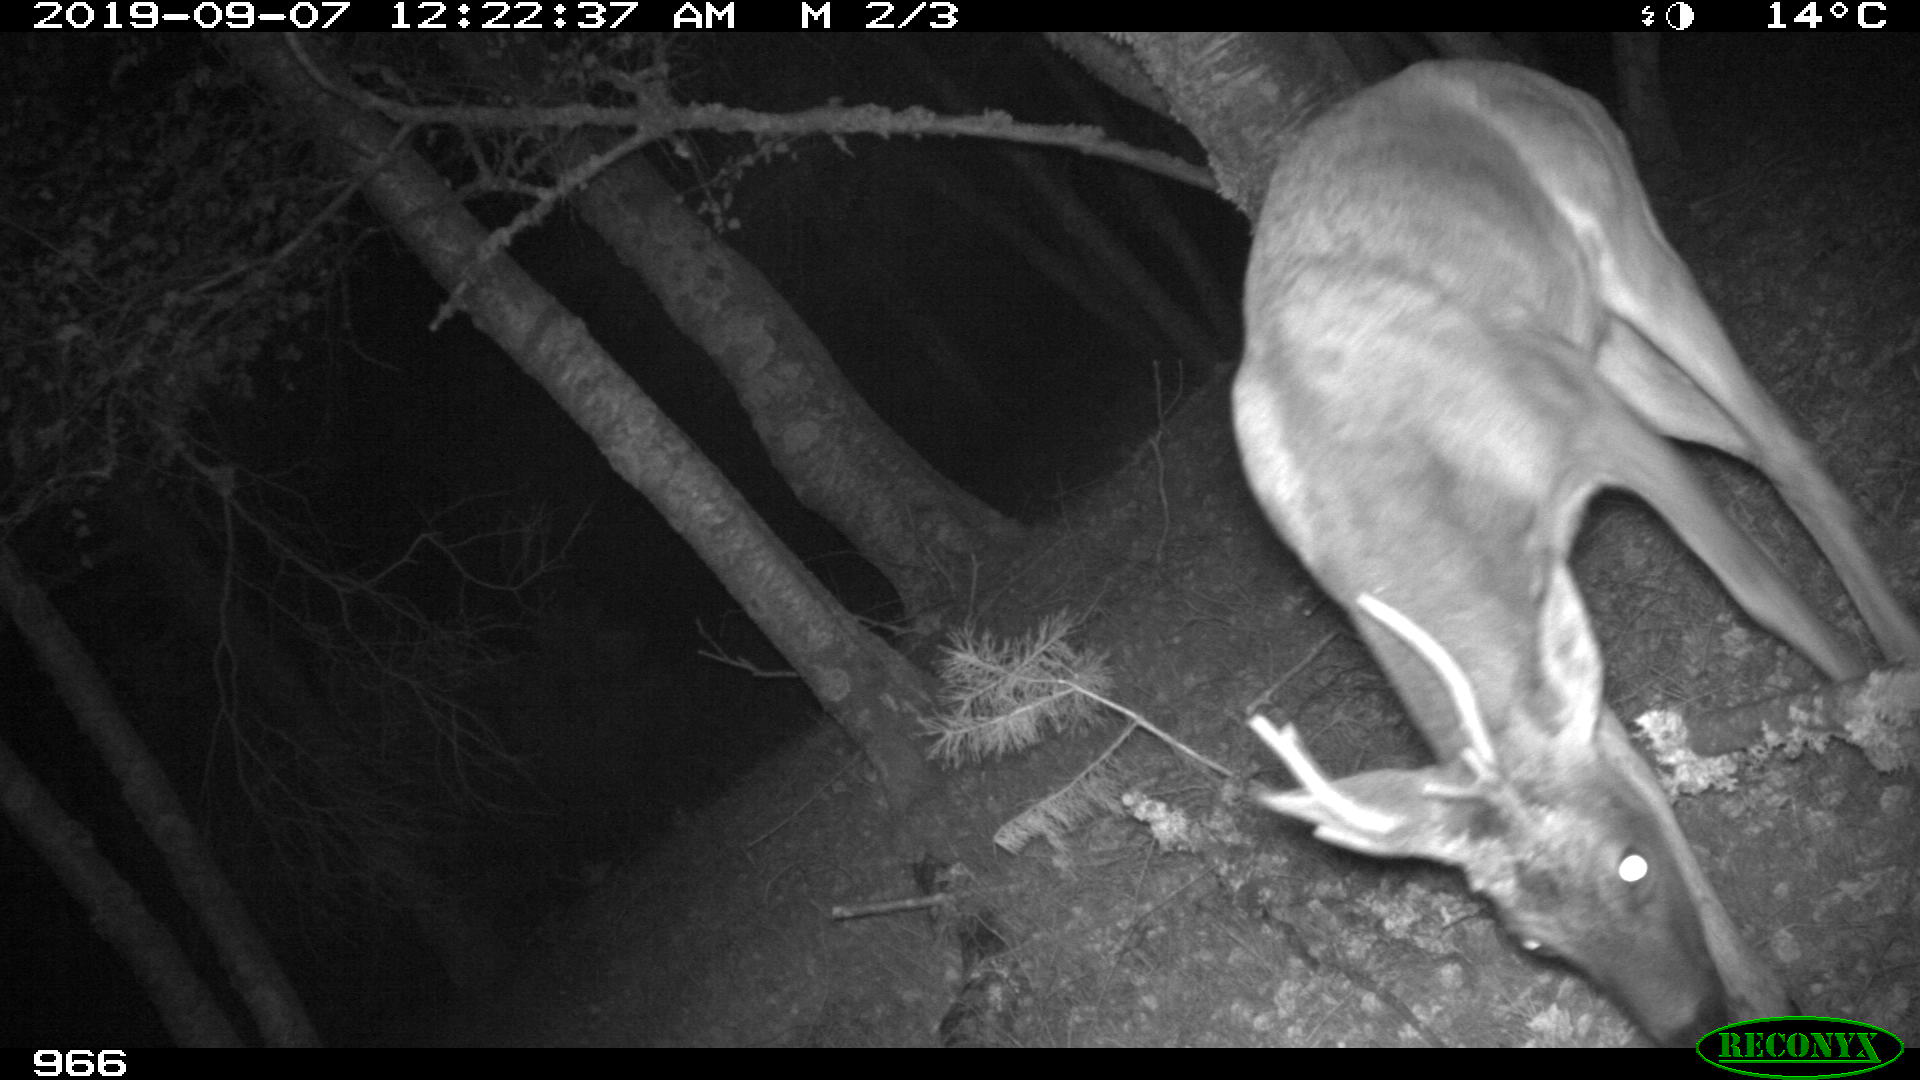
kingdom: Animalia
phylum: Chordata
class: Mammalia
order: Artiodactyla
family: Cervidae
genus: Capreolus
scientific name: Capreolus capreolus
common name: Western roe deer
